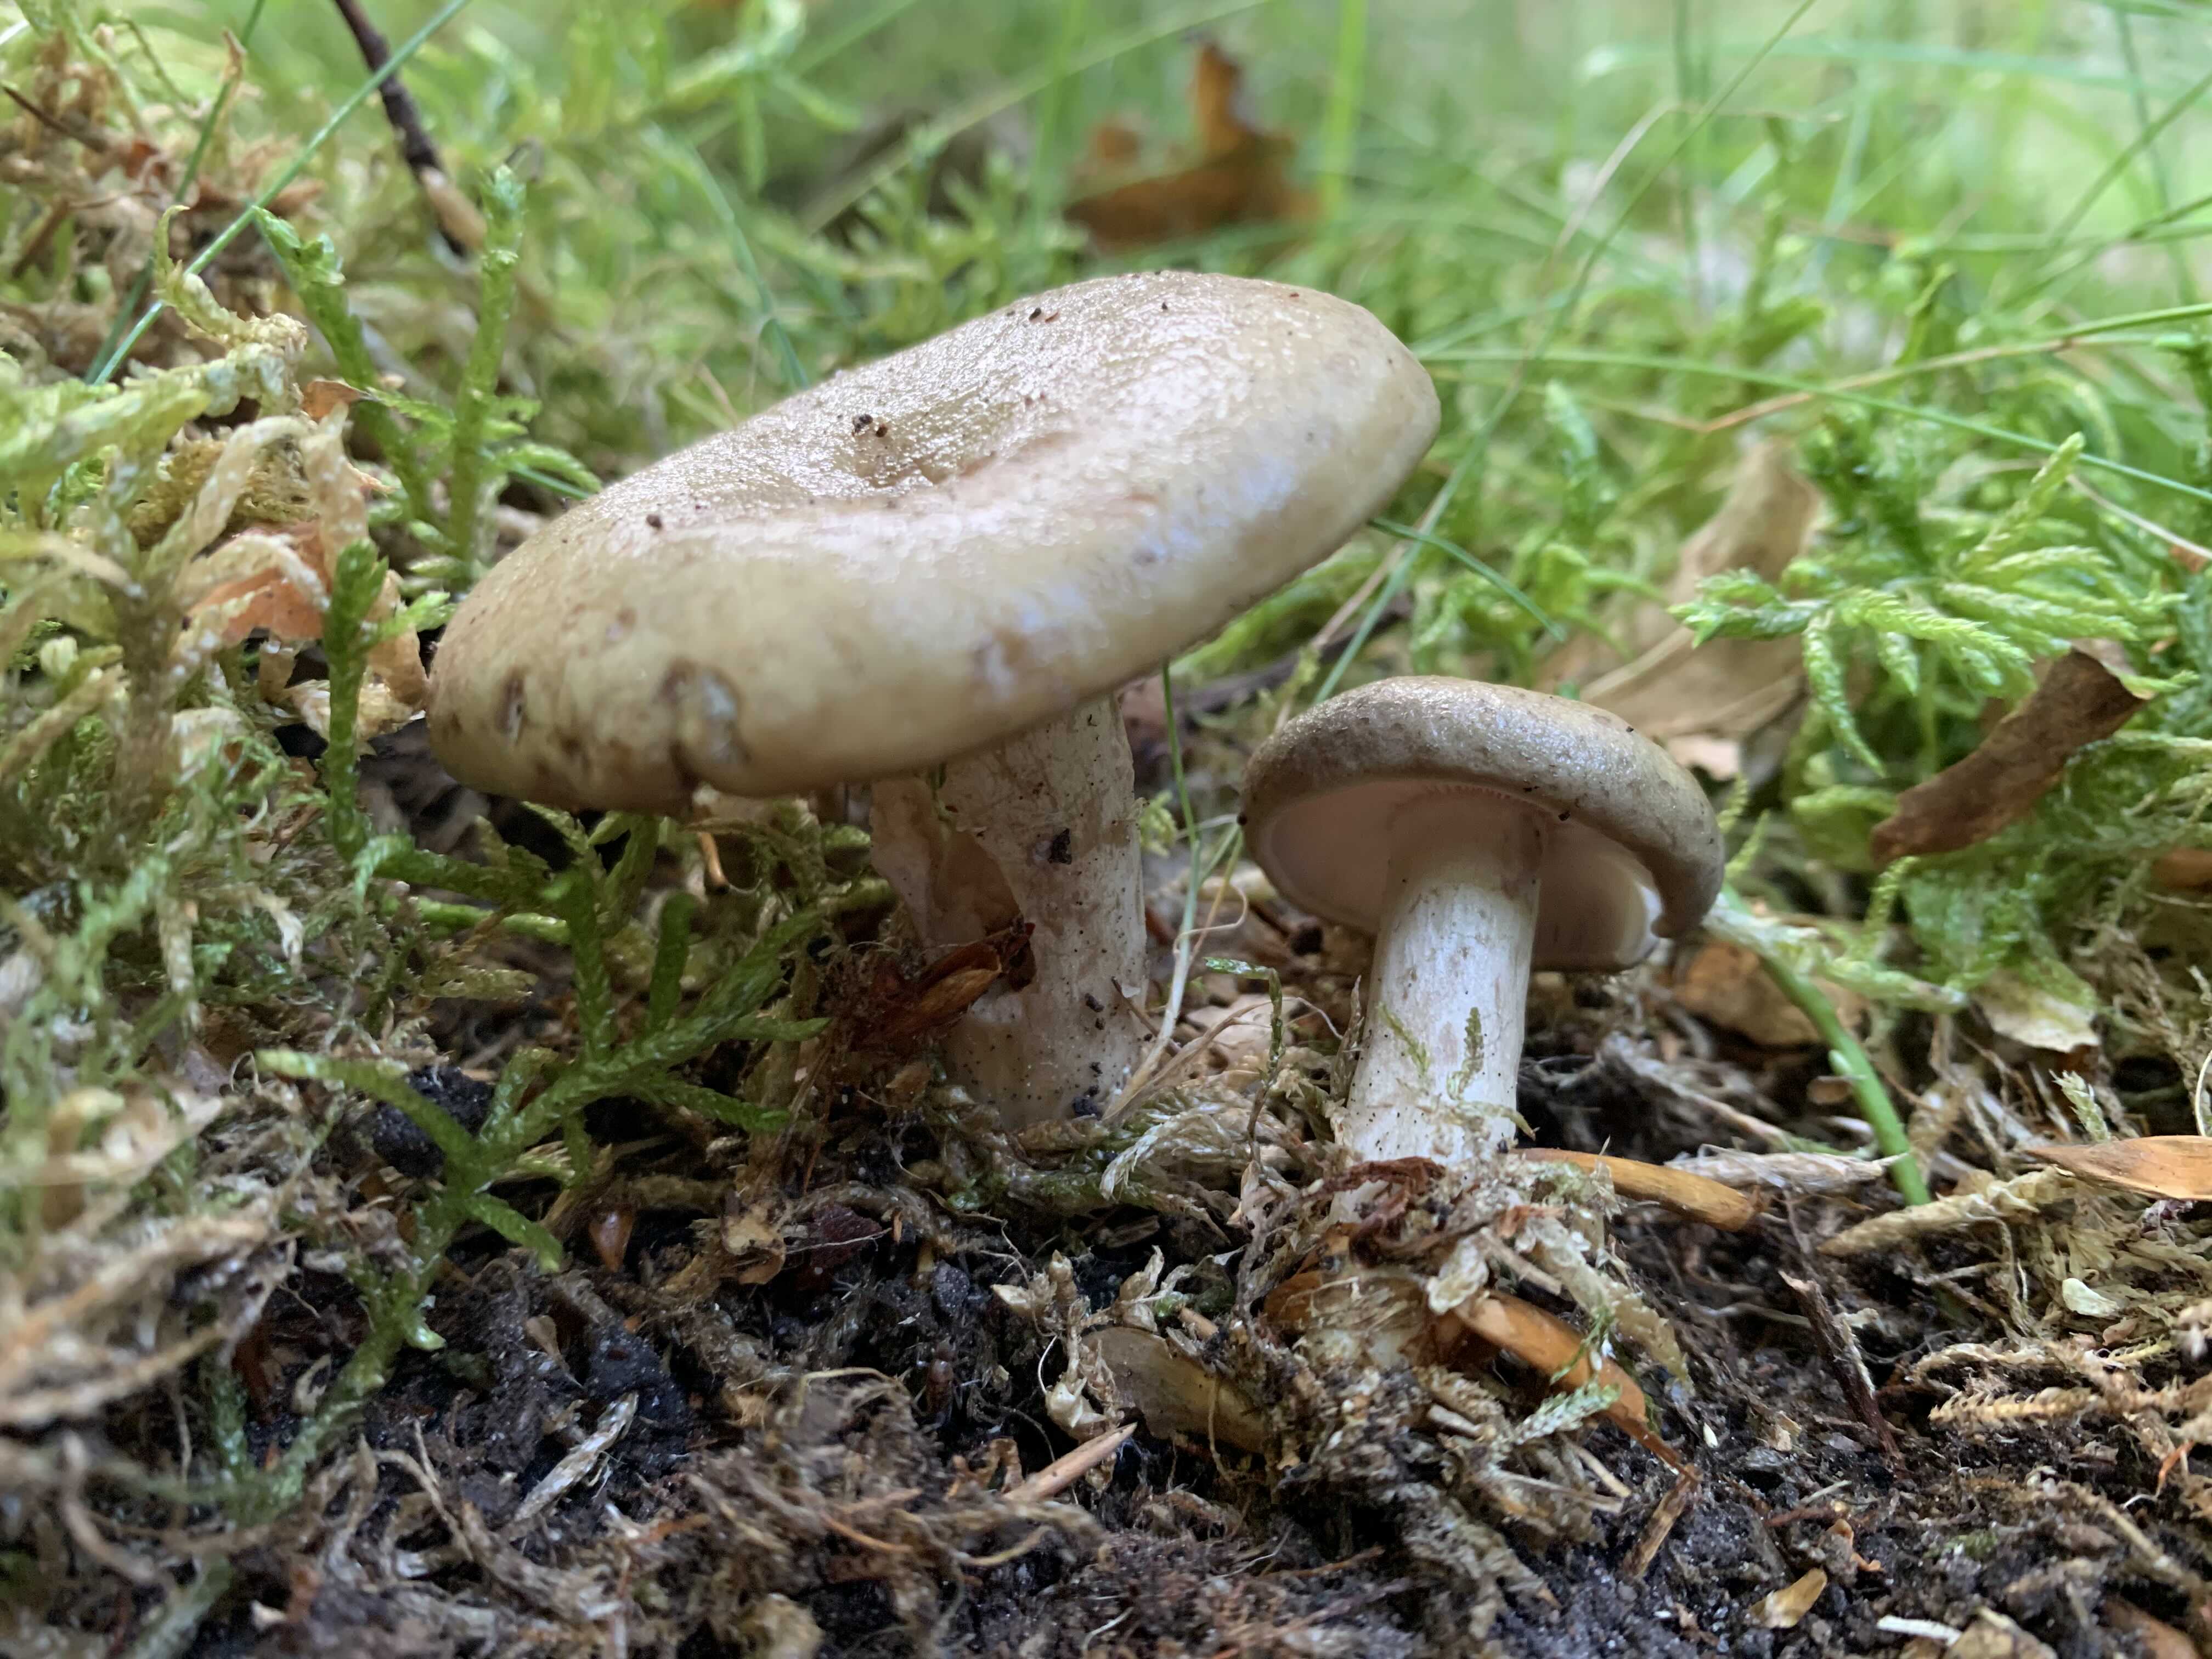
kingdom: Fungi
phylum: Basidiomycota
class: Agaricomycetes
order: Russulales
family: Russulaceae
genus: Lactarius
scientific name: Lactarius blennius
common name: dråbeplettet mælkehat
